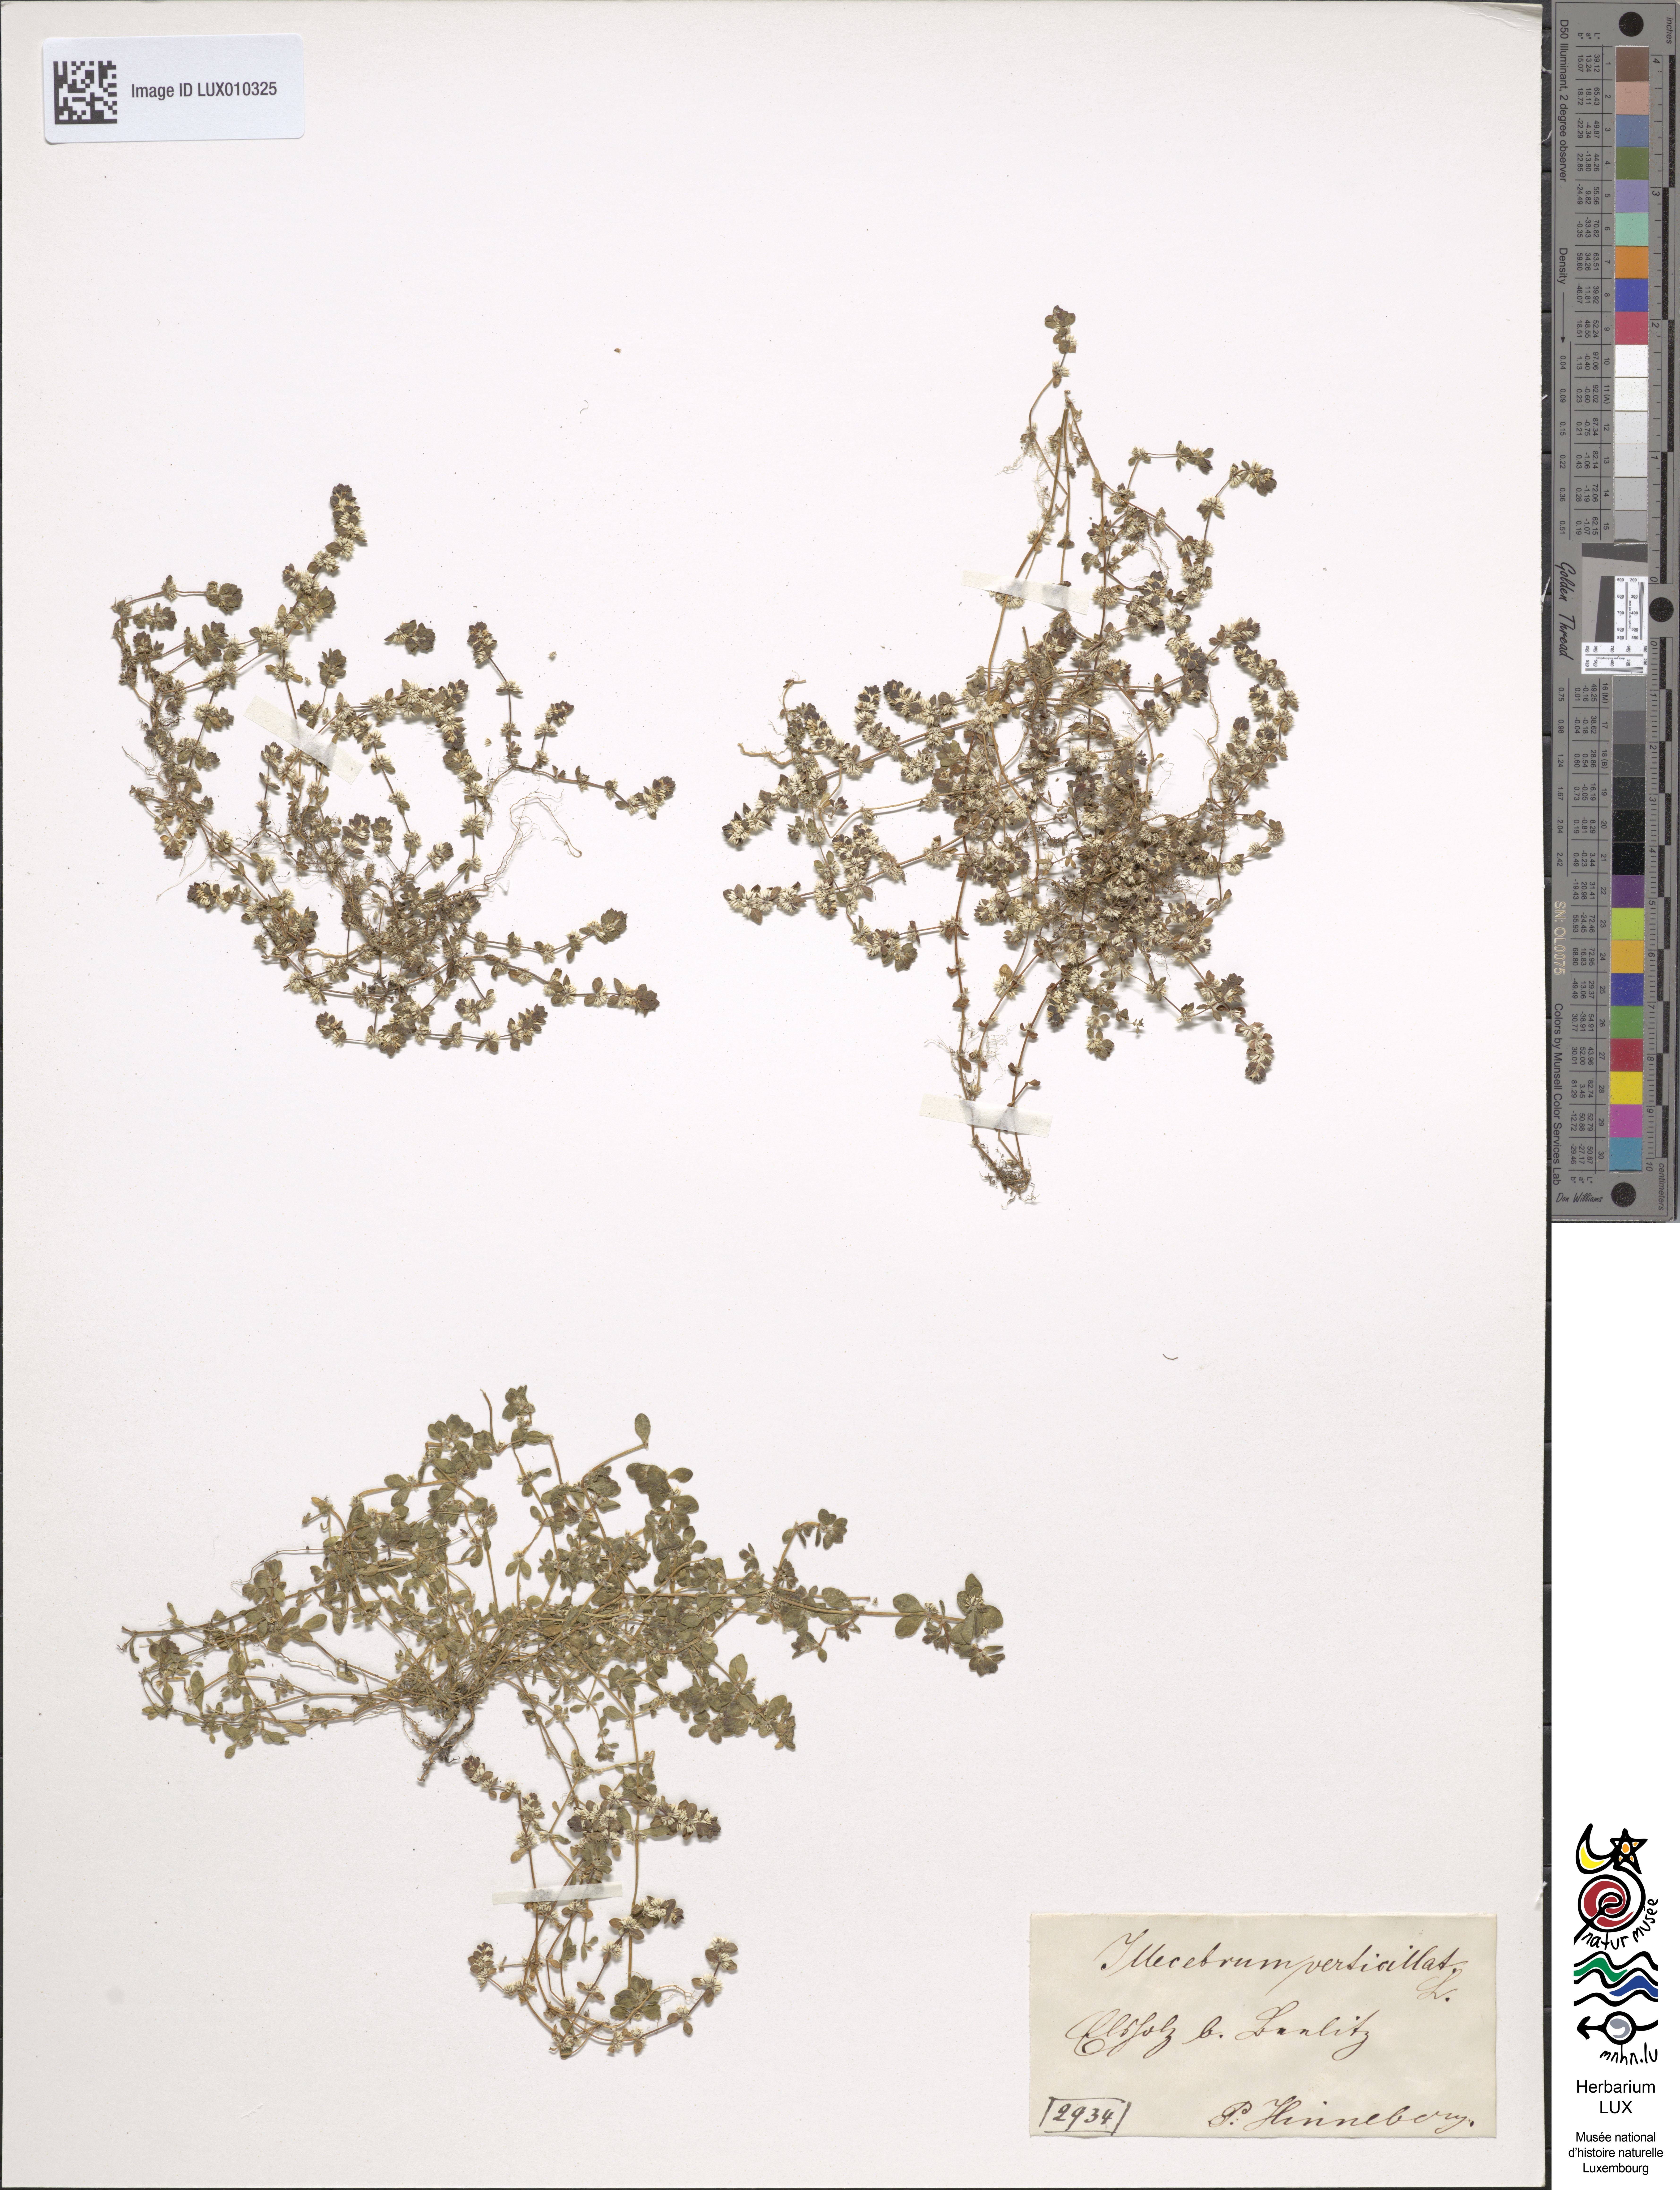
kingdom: Plantae
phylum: Tracheophyta
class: Magnoliopsida
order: Caryophyllales
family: Caryophyllaceae
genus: Illecebrum
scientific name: Illecebrum verticillatum
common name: Coral necklace
